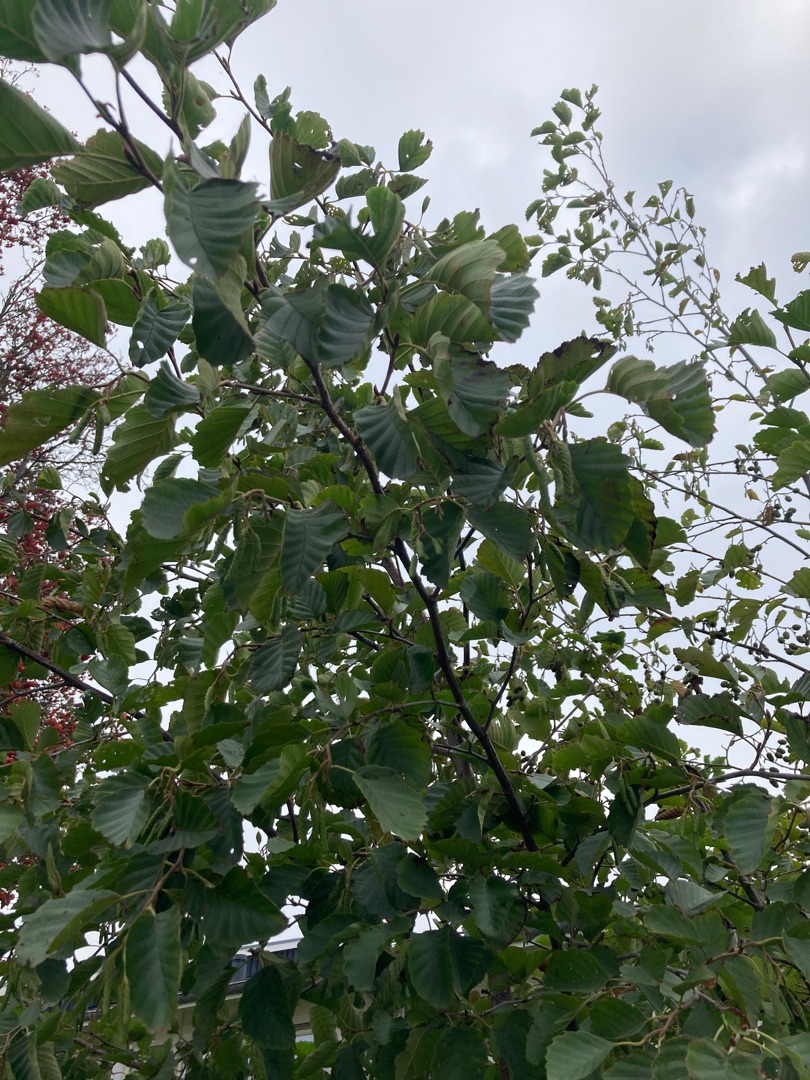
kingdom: Plantae
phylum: Tracheophyta
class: Magnoliopsida
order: Fagales
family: Betulaceae
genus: Alnus
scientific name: Alnus glutinosa
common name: Rød-el
